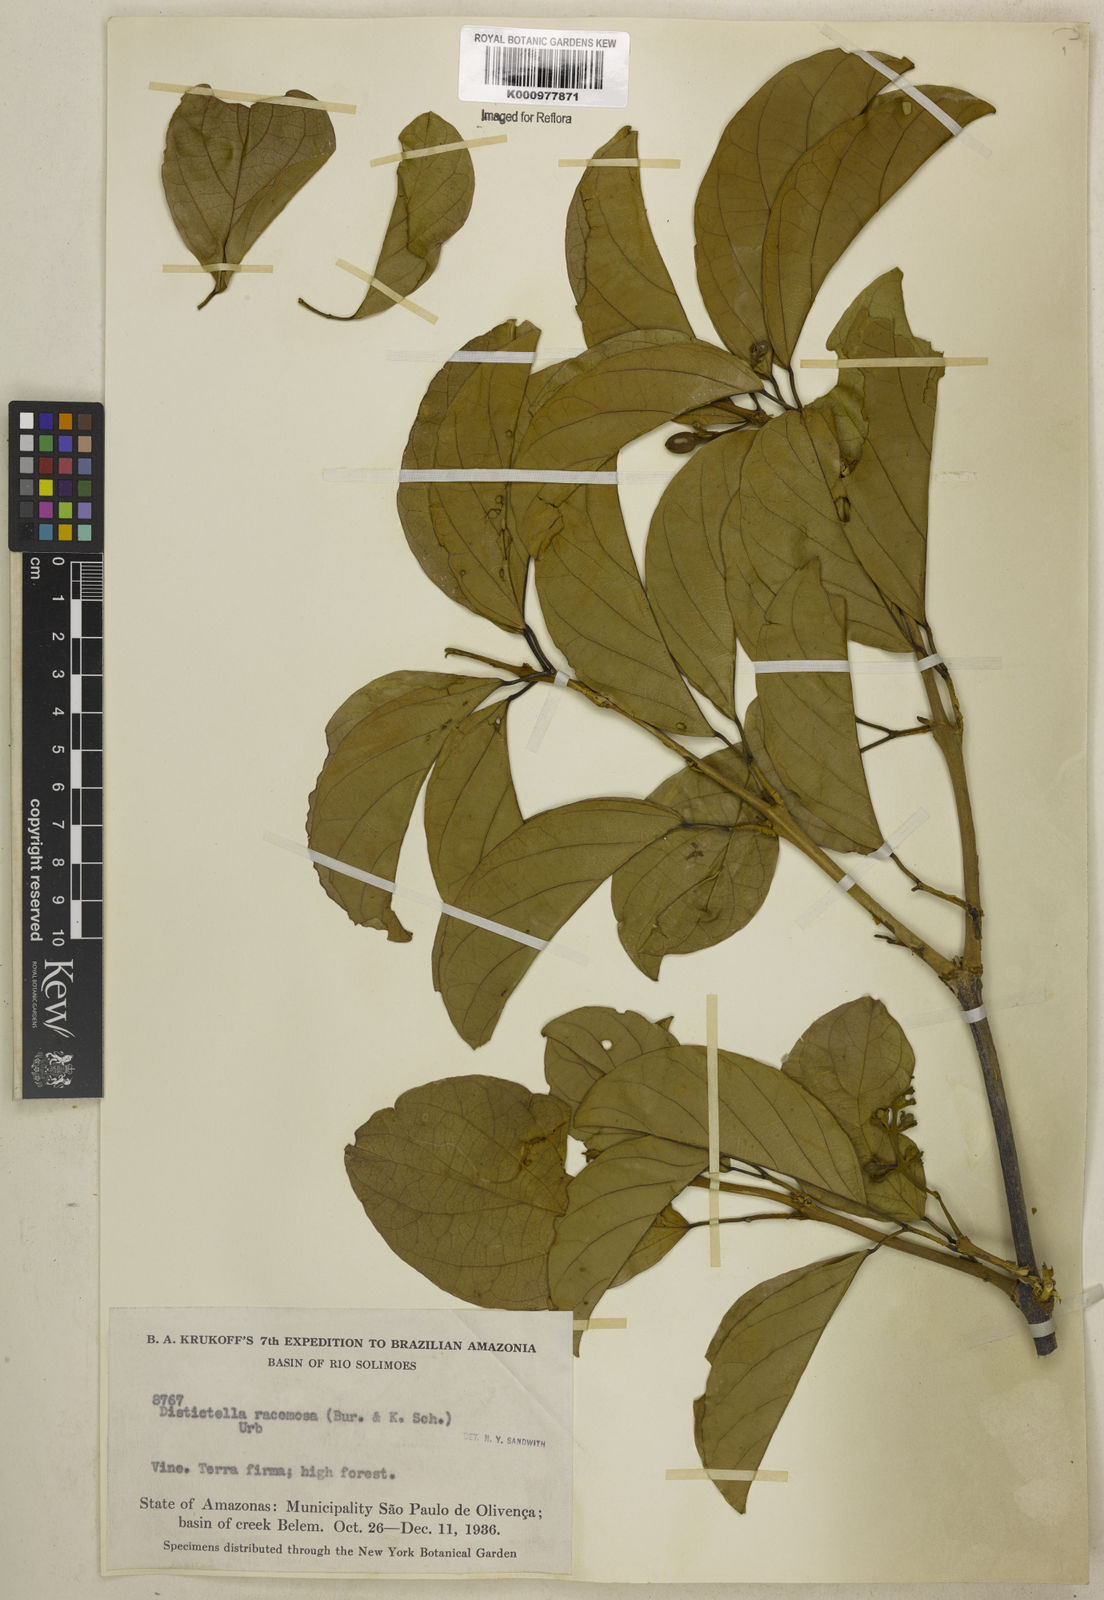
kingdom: Plantae
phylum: Tracheophyta
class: Magnoliopsida
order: Lamiales
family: Bignoniaceae
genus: Amphilophium
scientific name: Amphilophium racemosum
